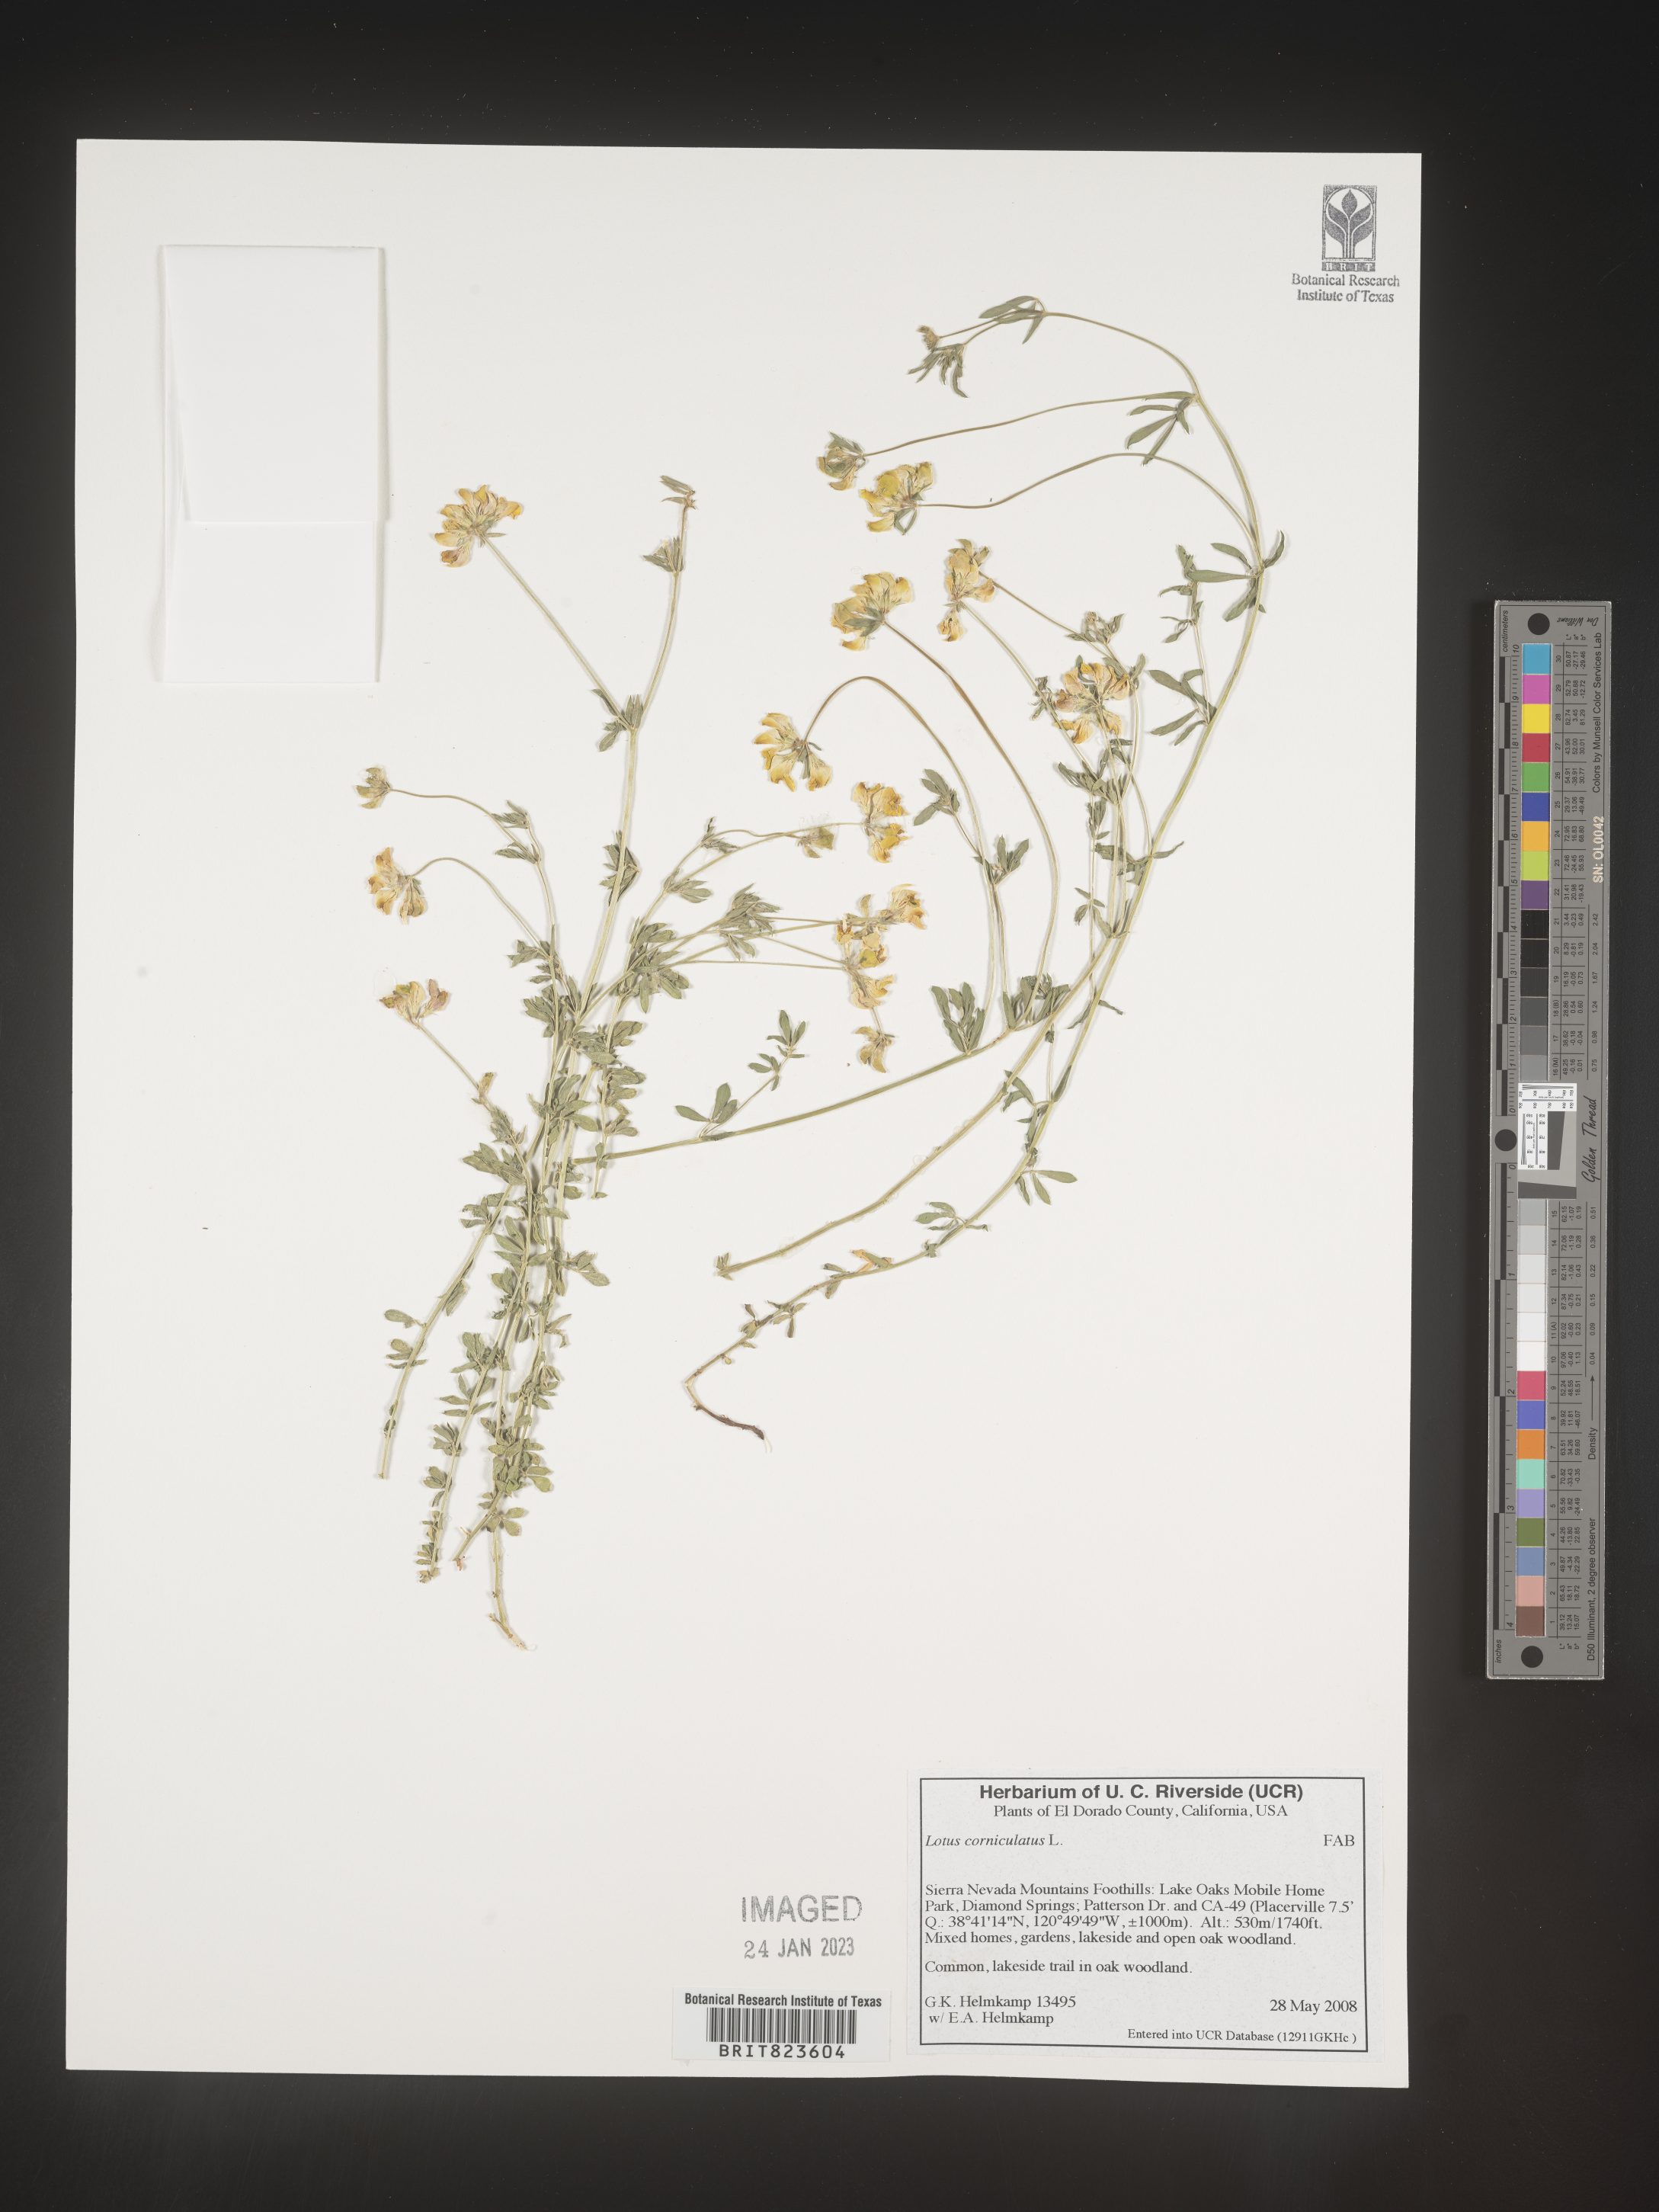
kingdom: Plantae
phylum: Tracheophyta
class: Magnoliopsida
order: Fabales
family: Fabaceae
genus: Lotus
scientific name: Lotus corniculatus
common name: Common bird's-foot-trefoil
